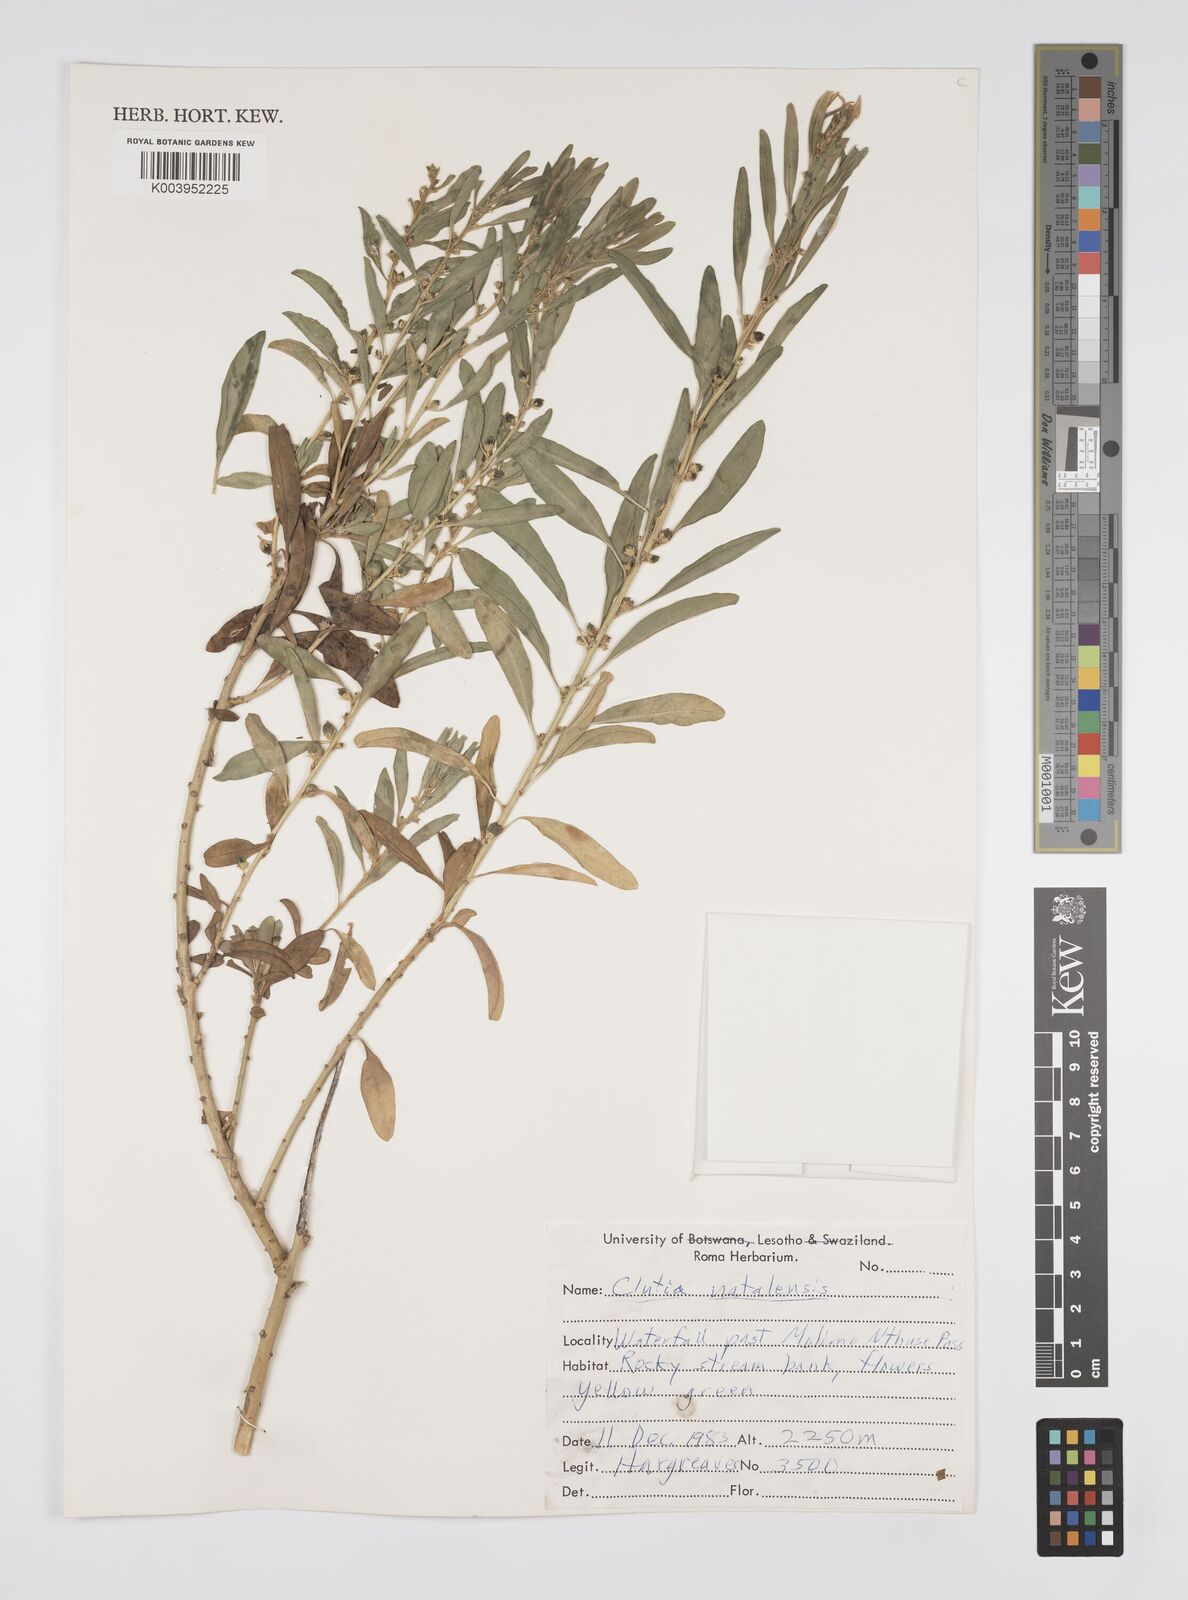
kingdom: Plantae
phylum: Tracheophyta
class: Magnoliopsida
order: Malpighiales
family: Peraceae
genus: Clutia
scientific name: Clutia natalensis
